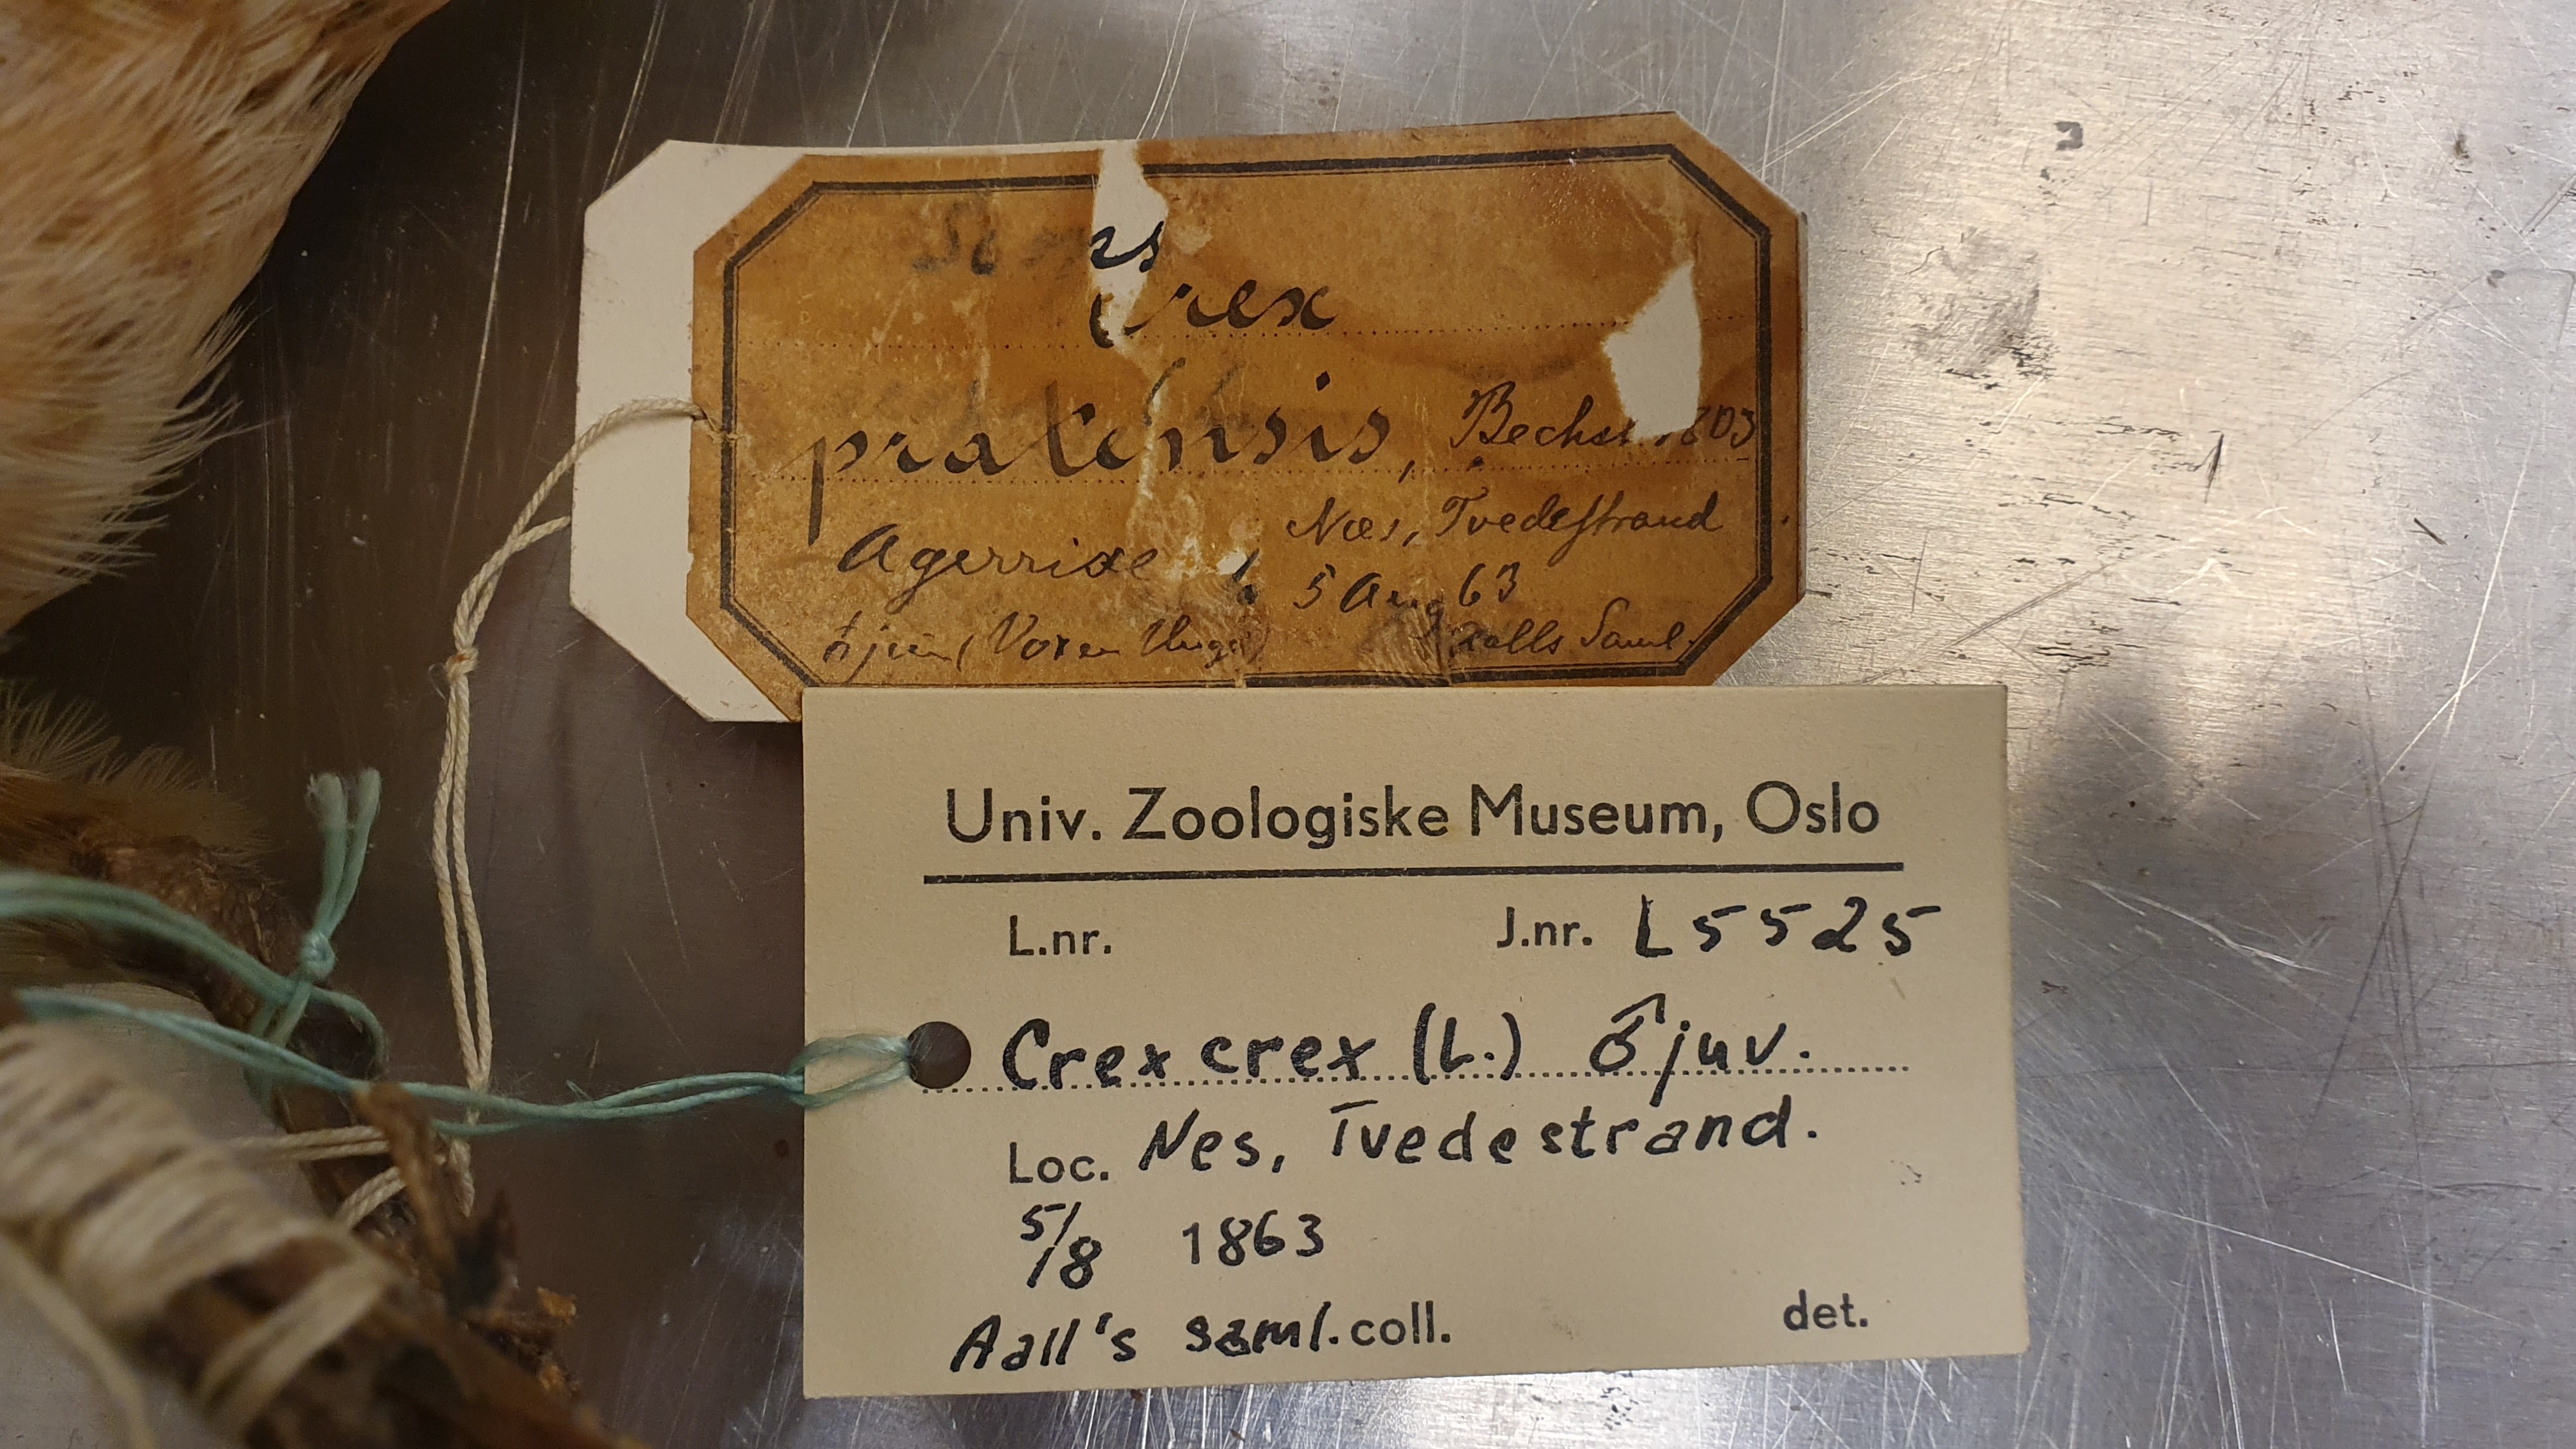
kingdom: Animalia
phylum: Chordata
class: Aves
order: Gruiformes
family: Rallidae
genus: Crex
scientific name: Crex crex
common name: Corn crake
